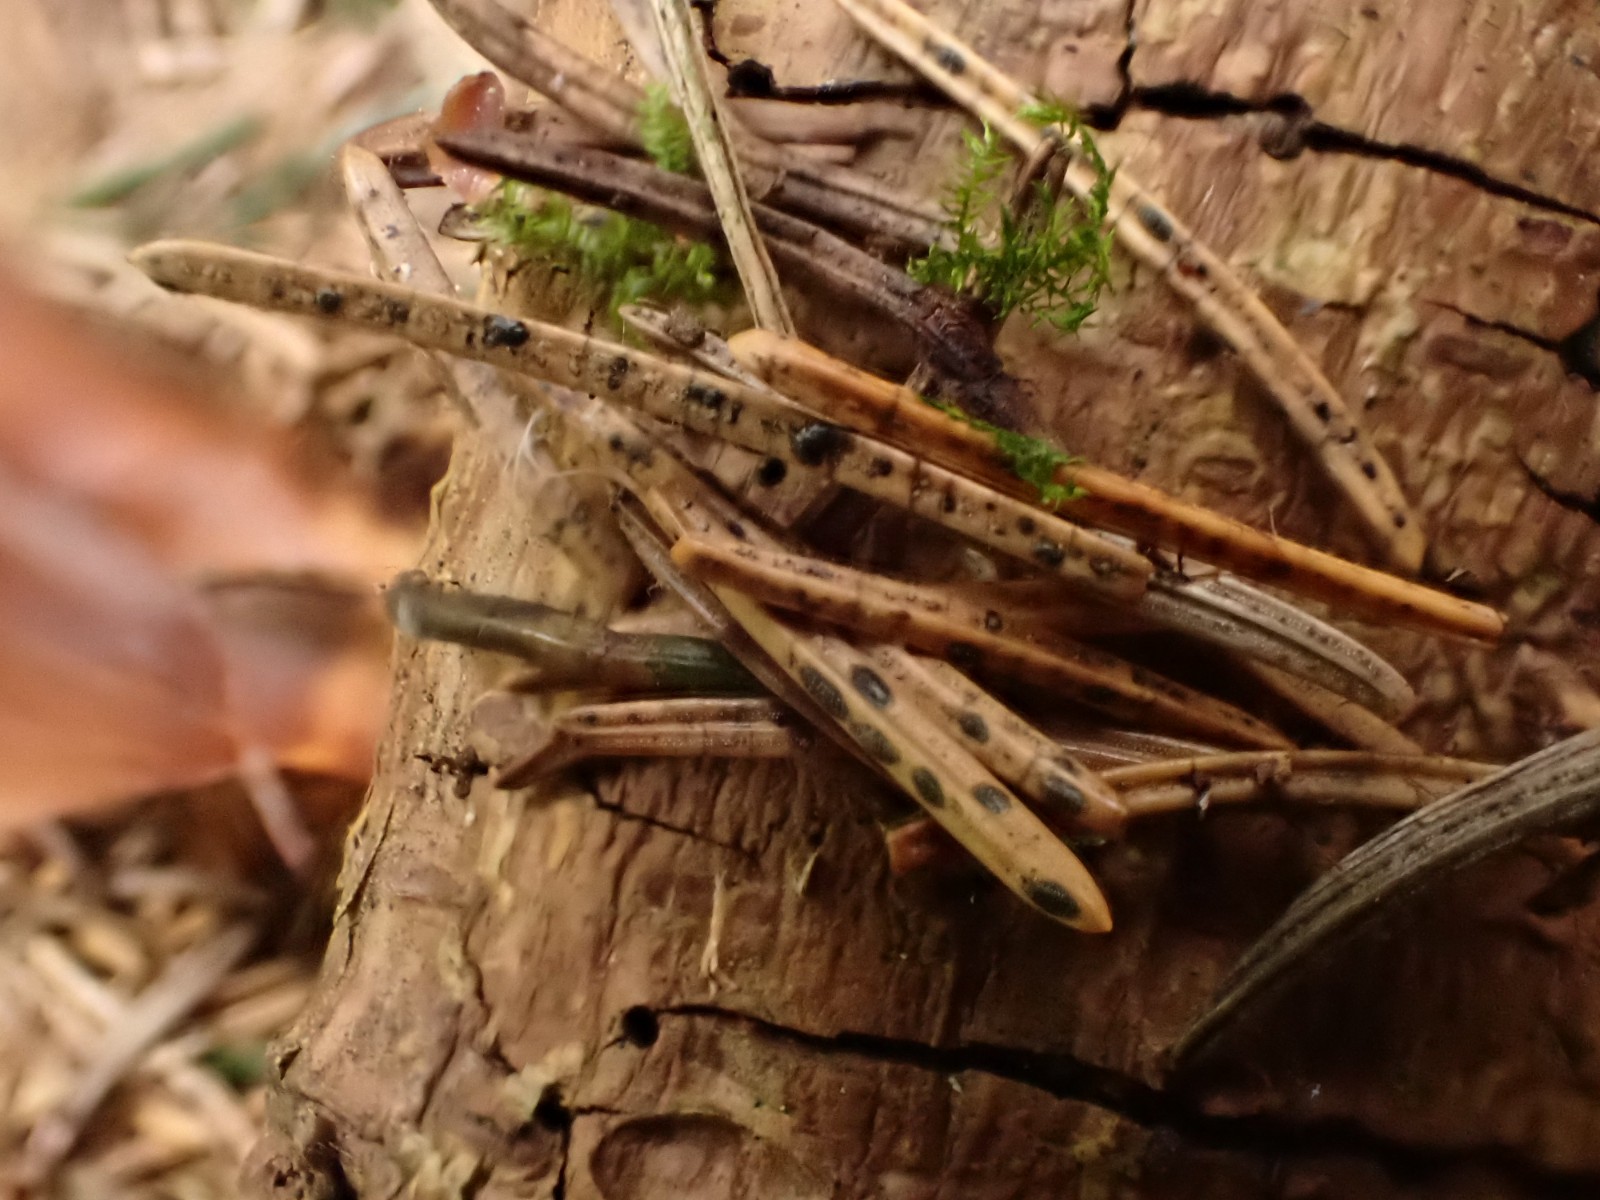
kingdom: Fungi
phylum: Ascomycota
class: Leotiomycetes
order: Rhytismatales
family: Rhytismataceae
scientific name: Rhytismataceae
